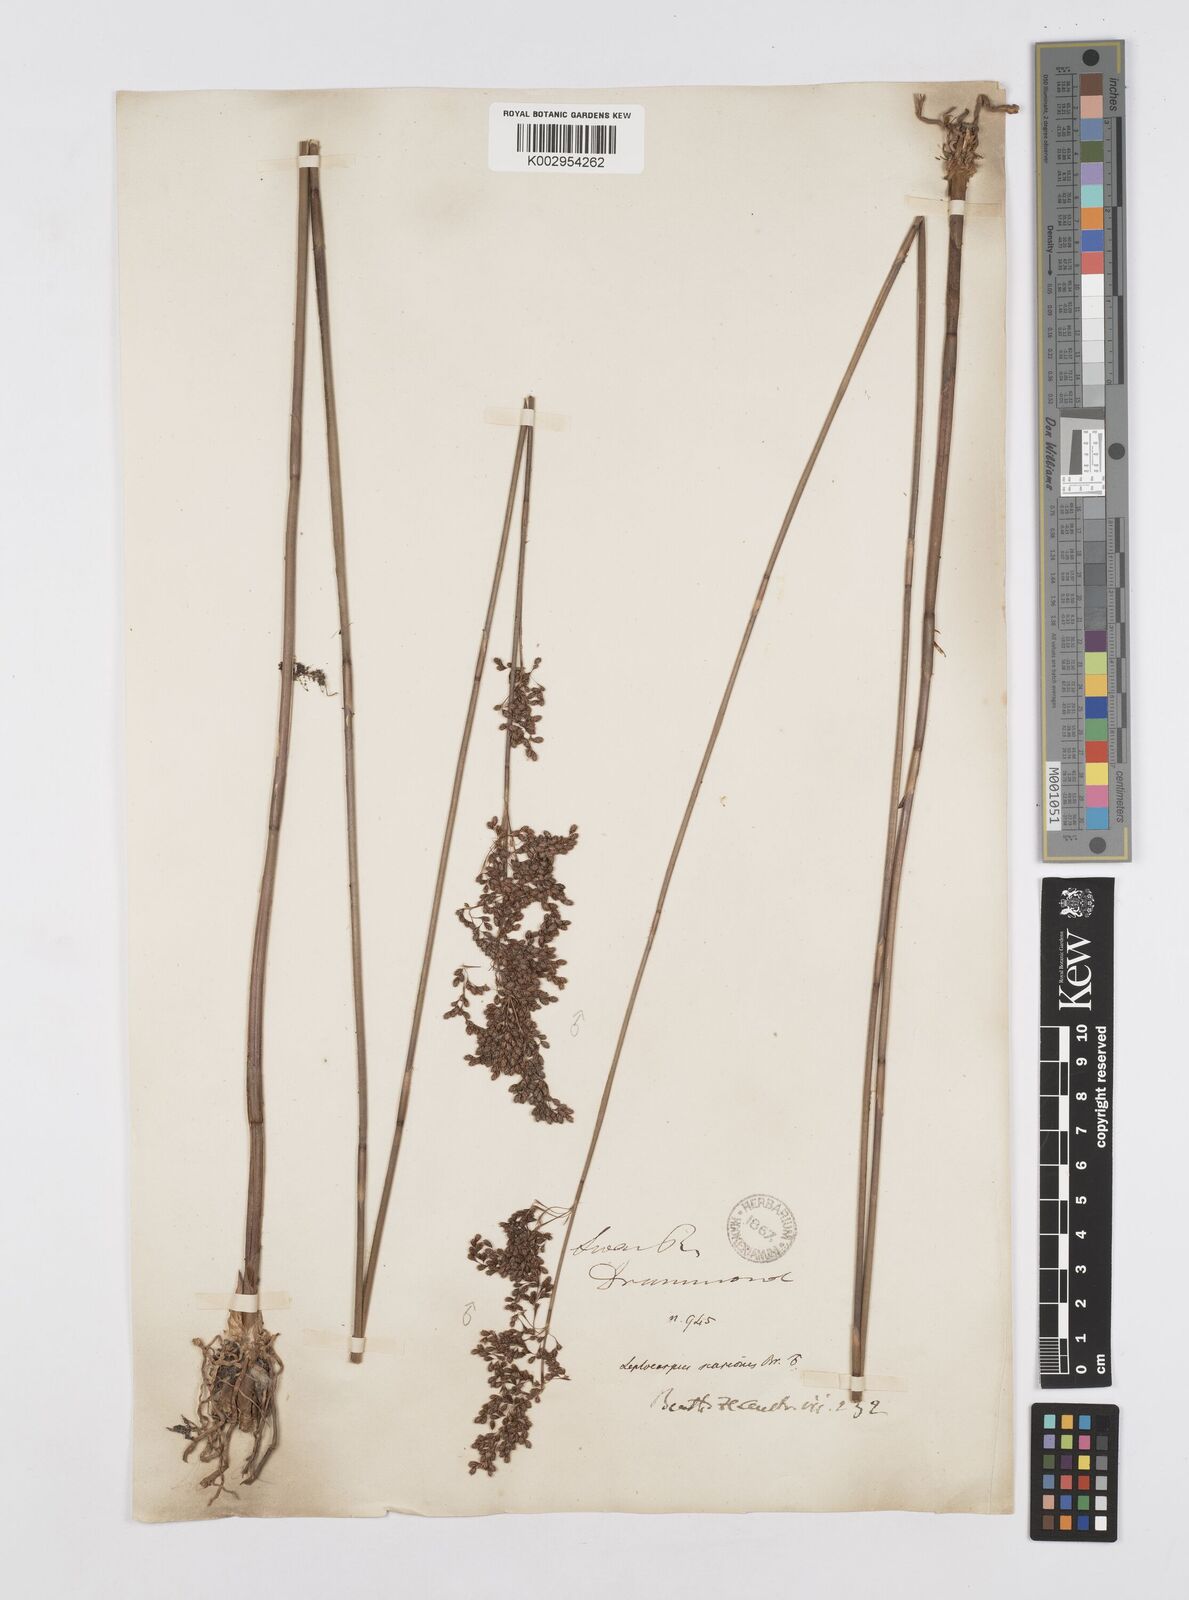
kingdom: Plantae
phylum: Tracheophyta
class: Liliopsida
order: Poales
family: Restionaceae
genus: Leptocarpus
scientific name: Leptocarpus scariosus
